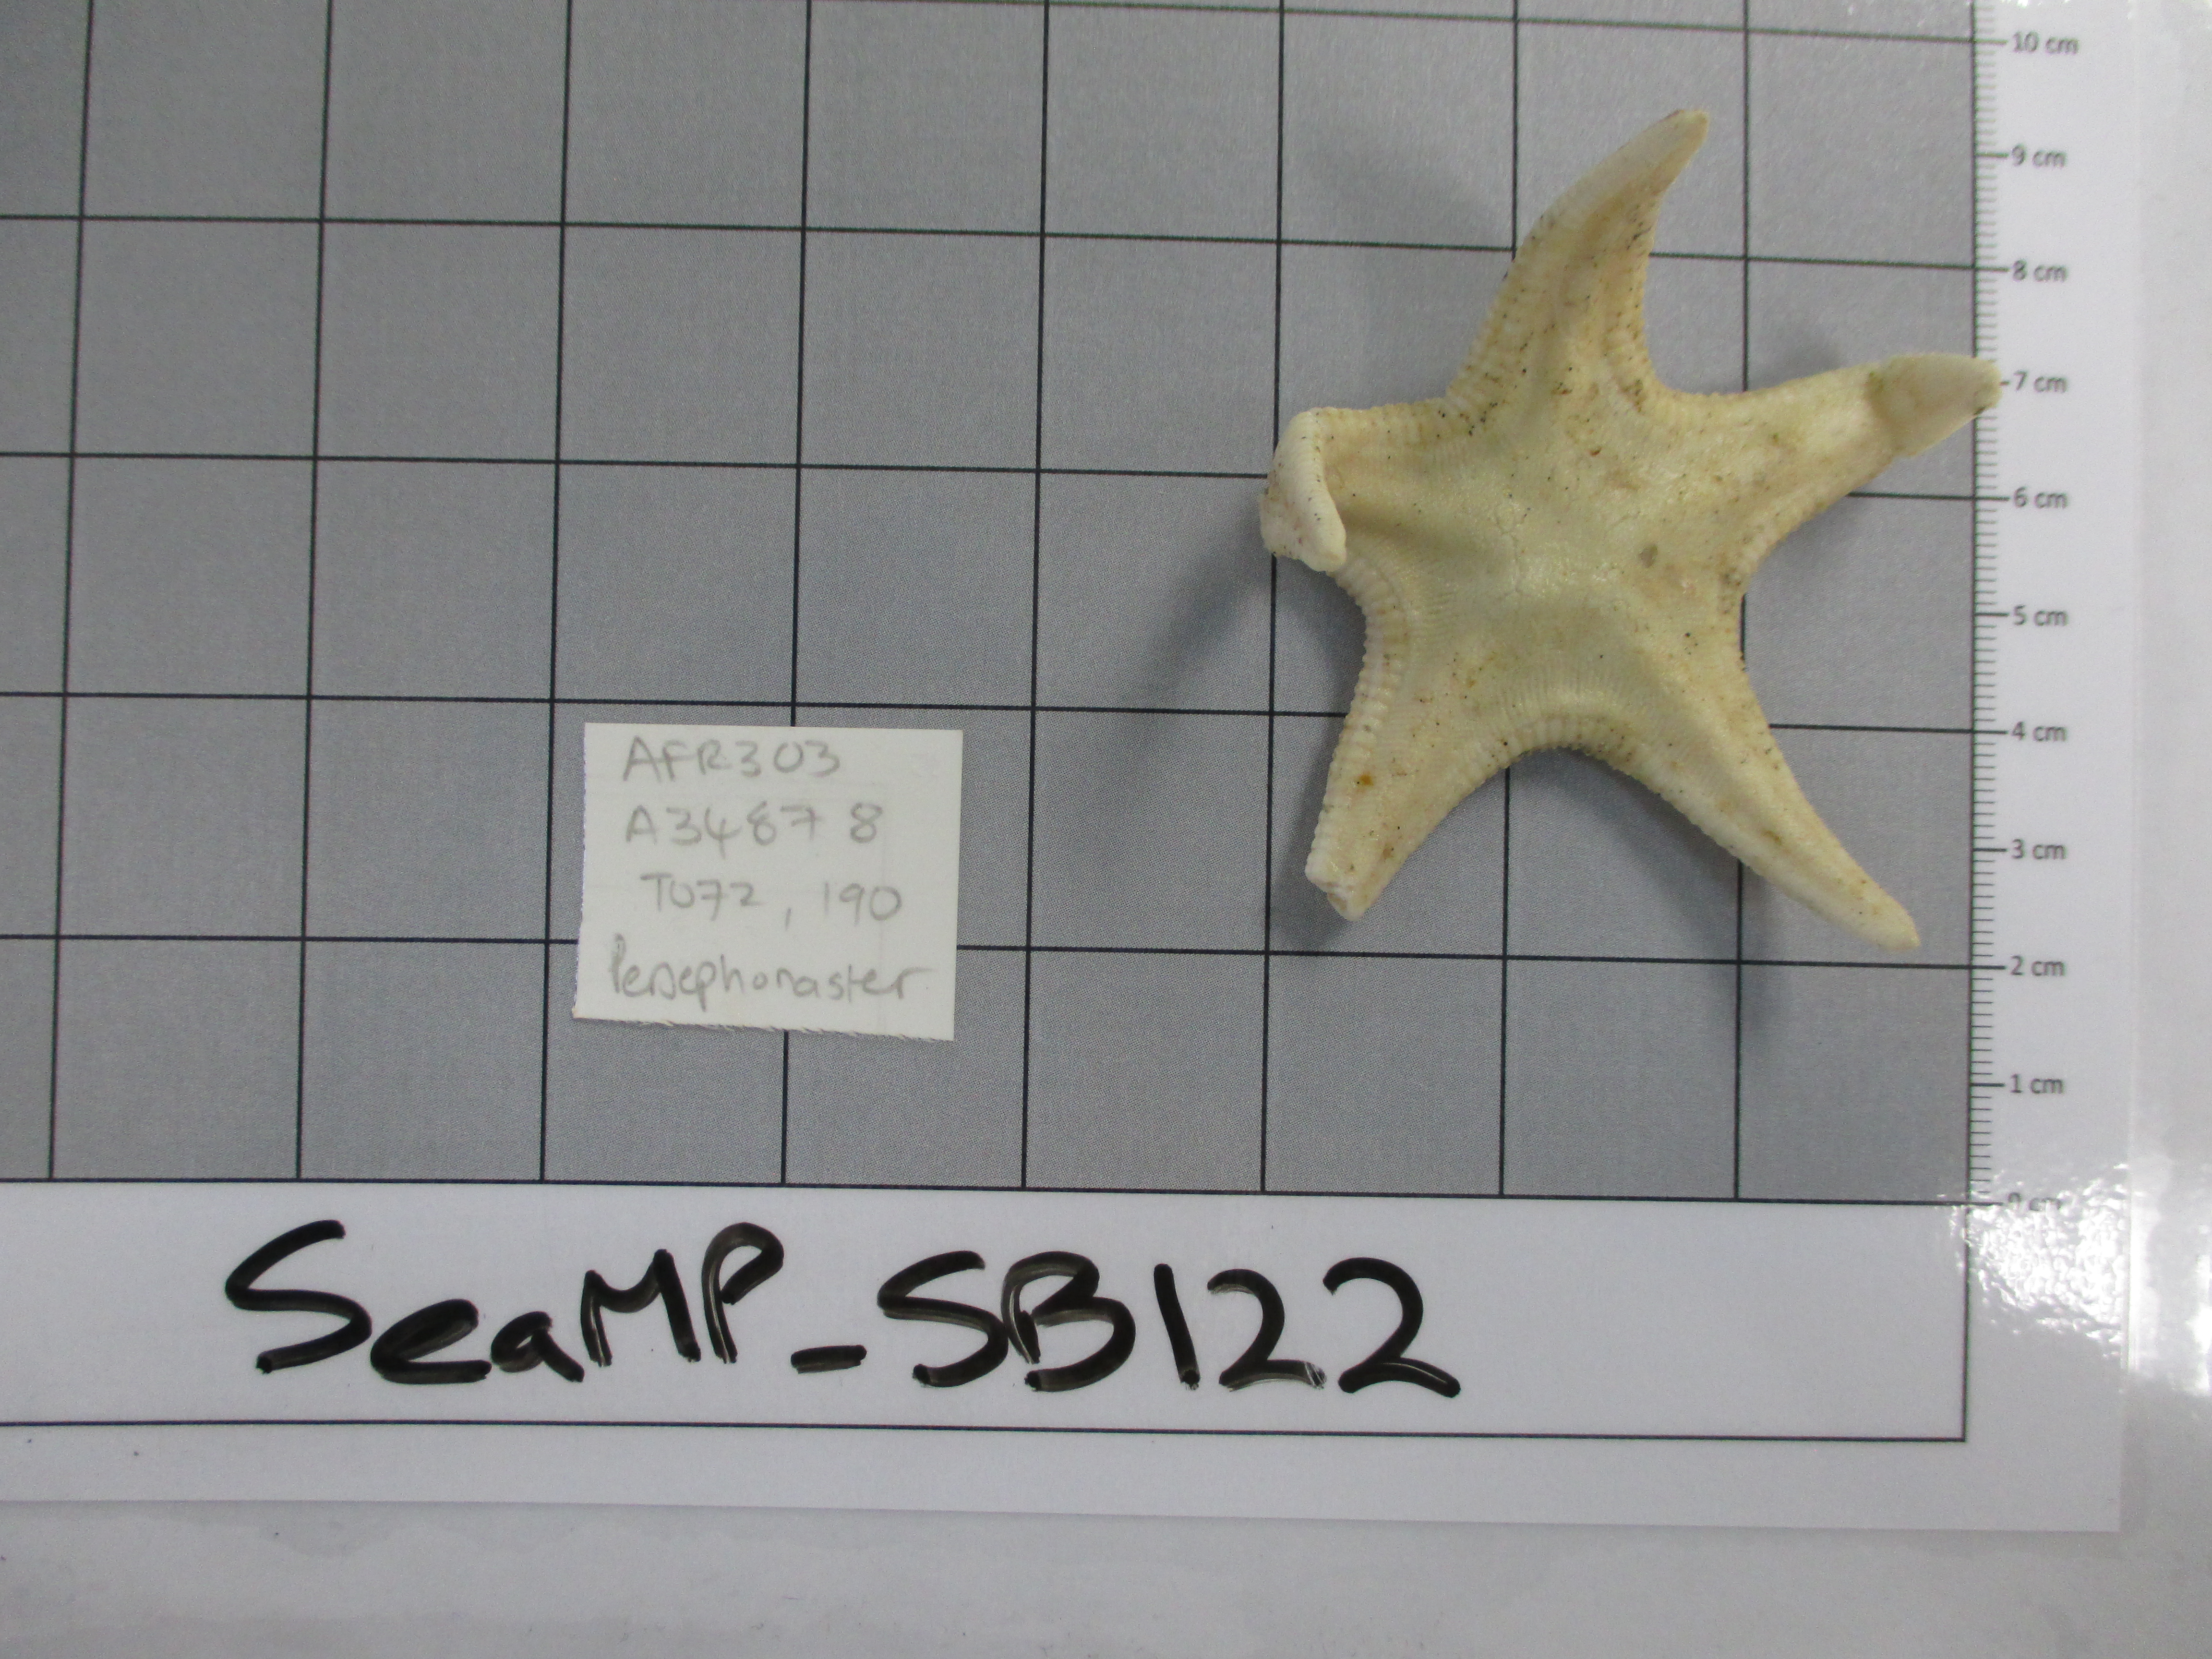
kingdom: Animalia
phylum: Echinodermata
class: Asteroidea
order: Paxillosida
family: Astropectinidae
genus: Persephonaster
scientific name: Persephonaster
